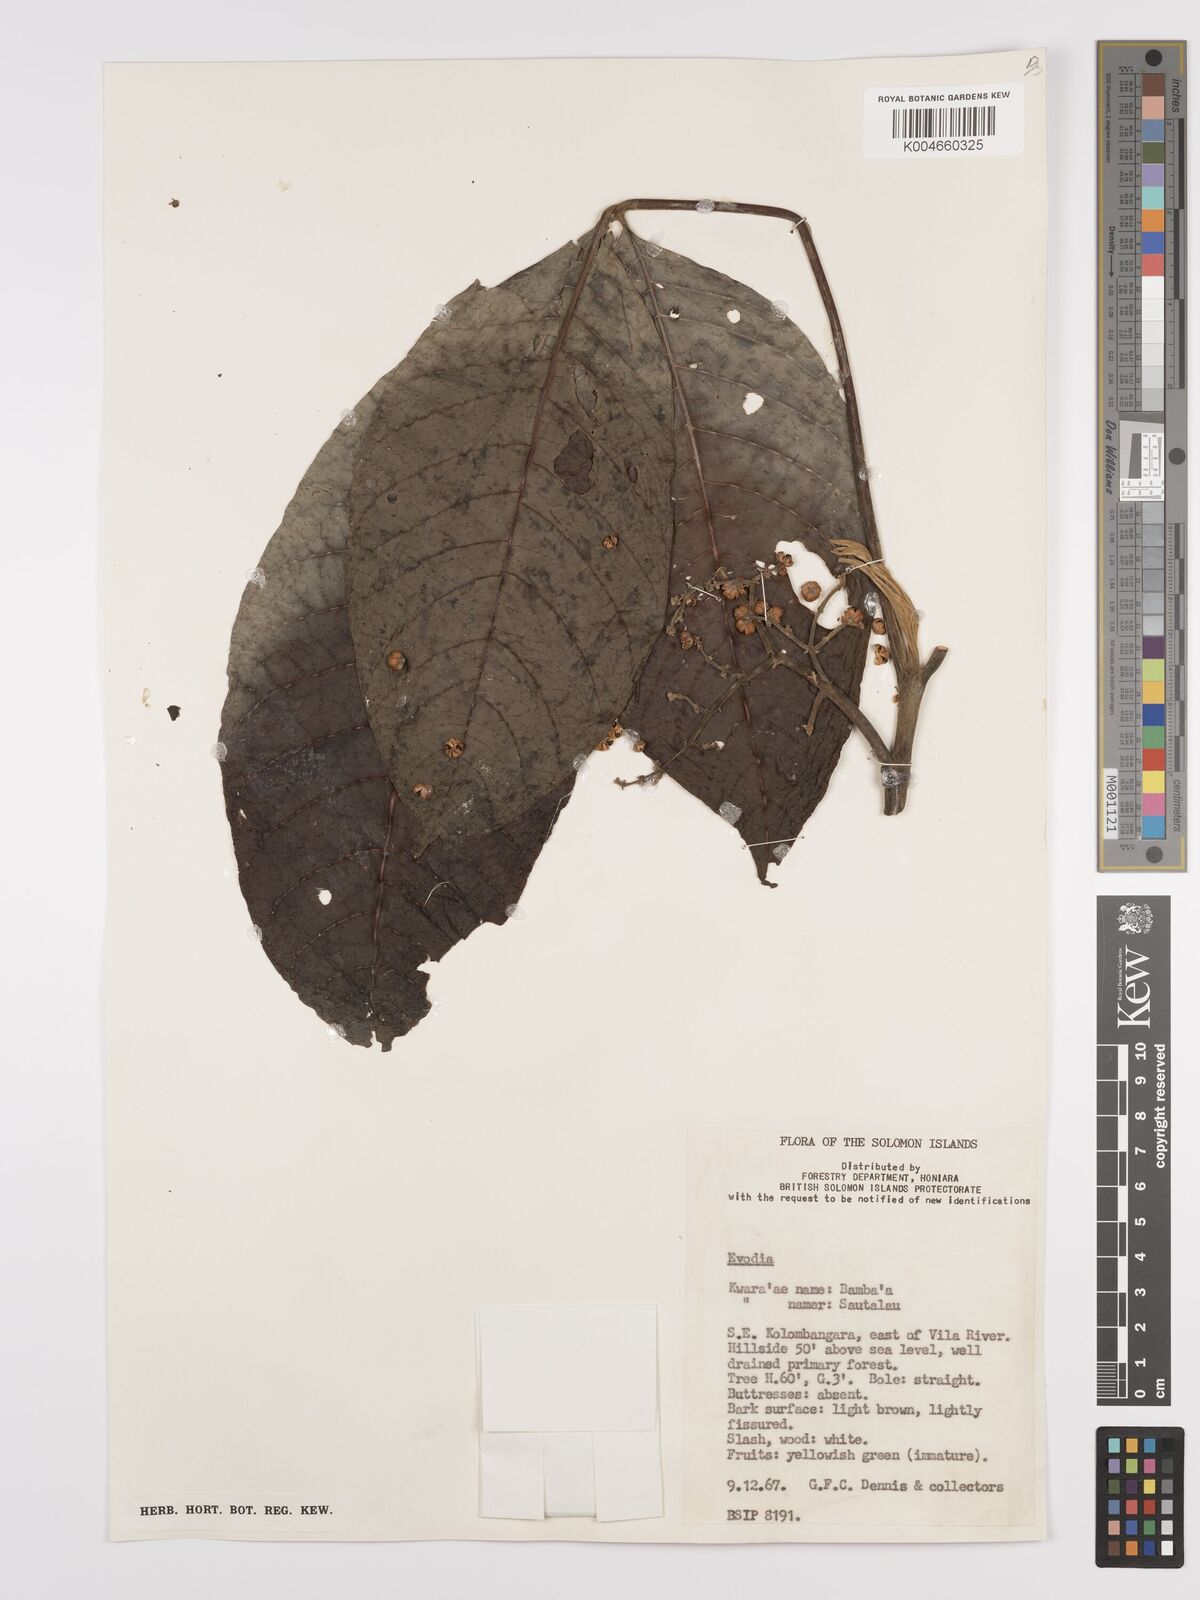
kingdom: Plantae
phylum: Tracheophyta
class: Magnoliopsida
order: Sapindales
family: Rutaceae
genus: Euodia
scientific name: Euodia
